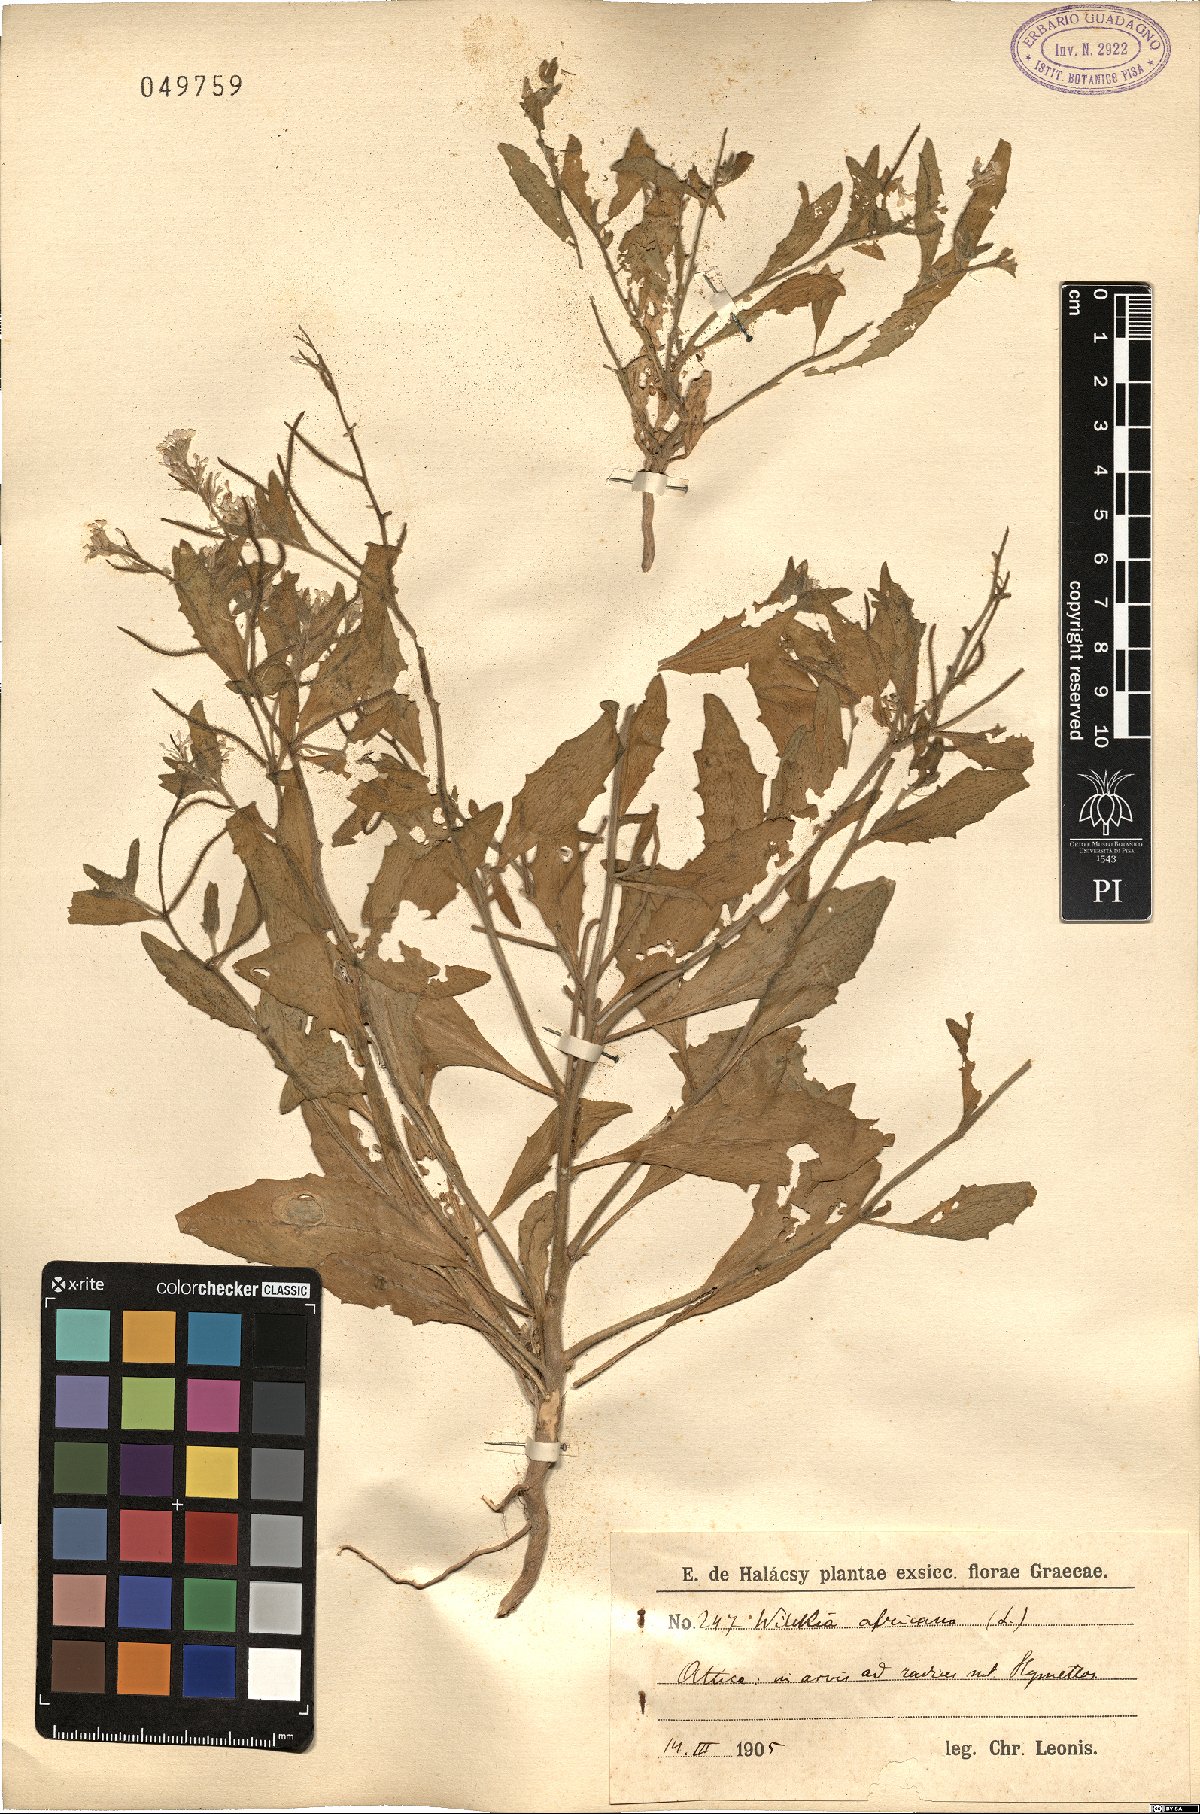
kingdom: Plantae
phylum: Tracheophyta
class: Magnoliopsida
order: Brassicales
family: Brassicaceae
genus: Strigosella
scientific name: Strigosella africana
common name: African mustard
